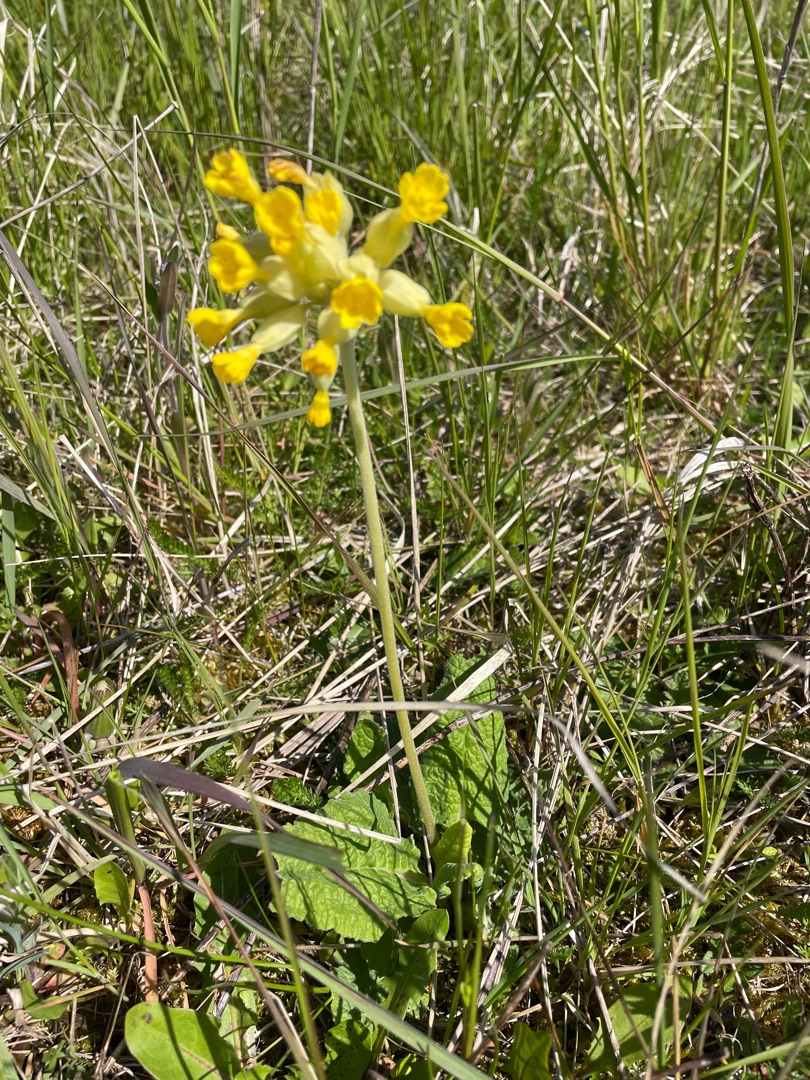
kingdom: Plantae
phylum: Tracheophyta
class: Magnoliopsida
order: Ericales
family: Primulaceae
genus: Primula
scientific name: Primula veris
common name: Hulkravet kodriver
